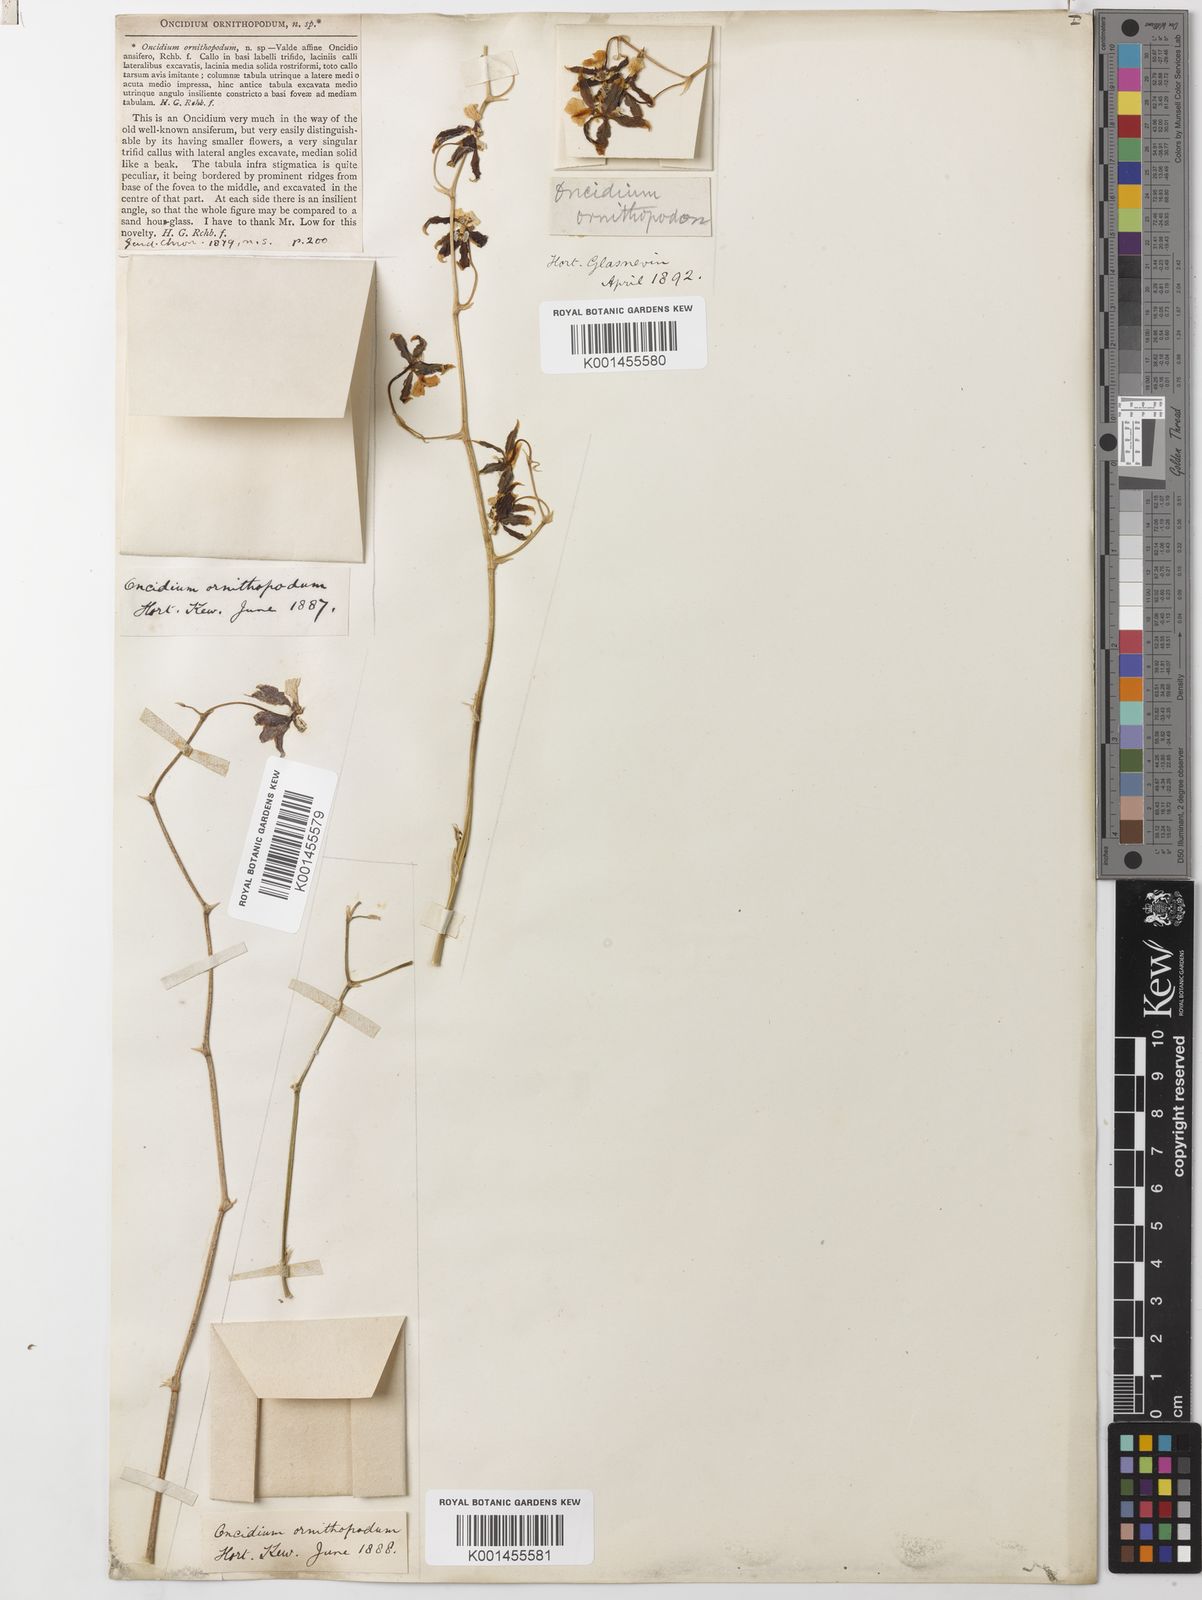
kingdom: Plantae
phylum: Tracheophyta
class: Liliopsida
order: Asparagales
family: Orchidaceae
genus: Oncidium
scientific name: Oncidium ornithopodum
